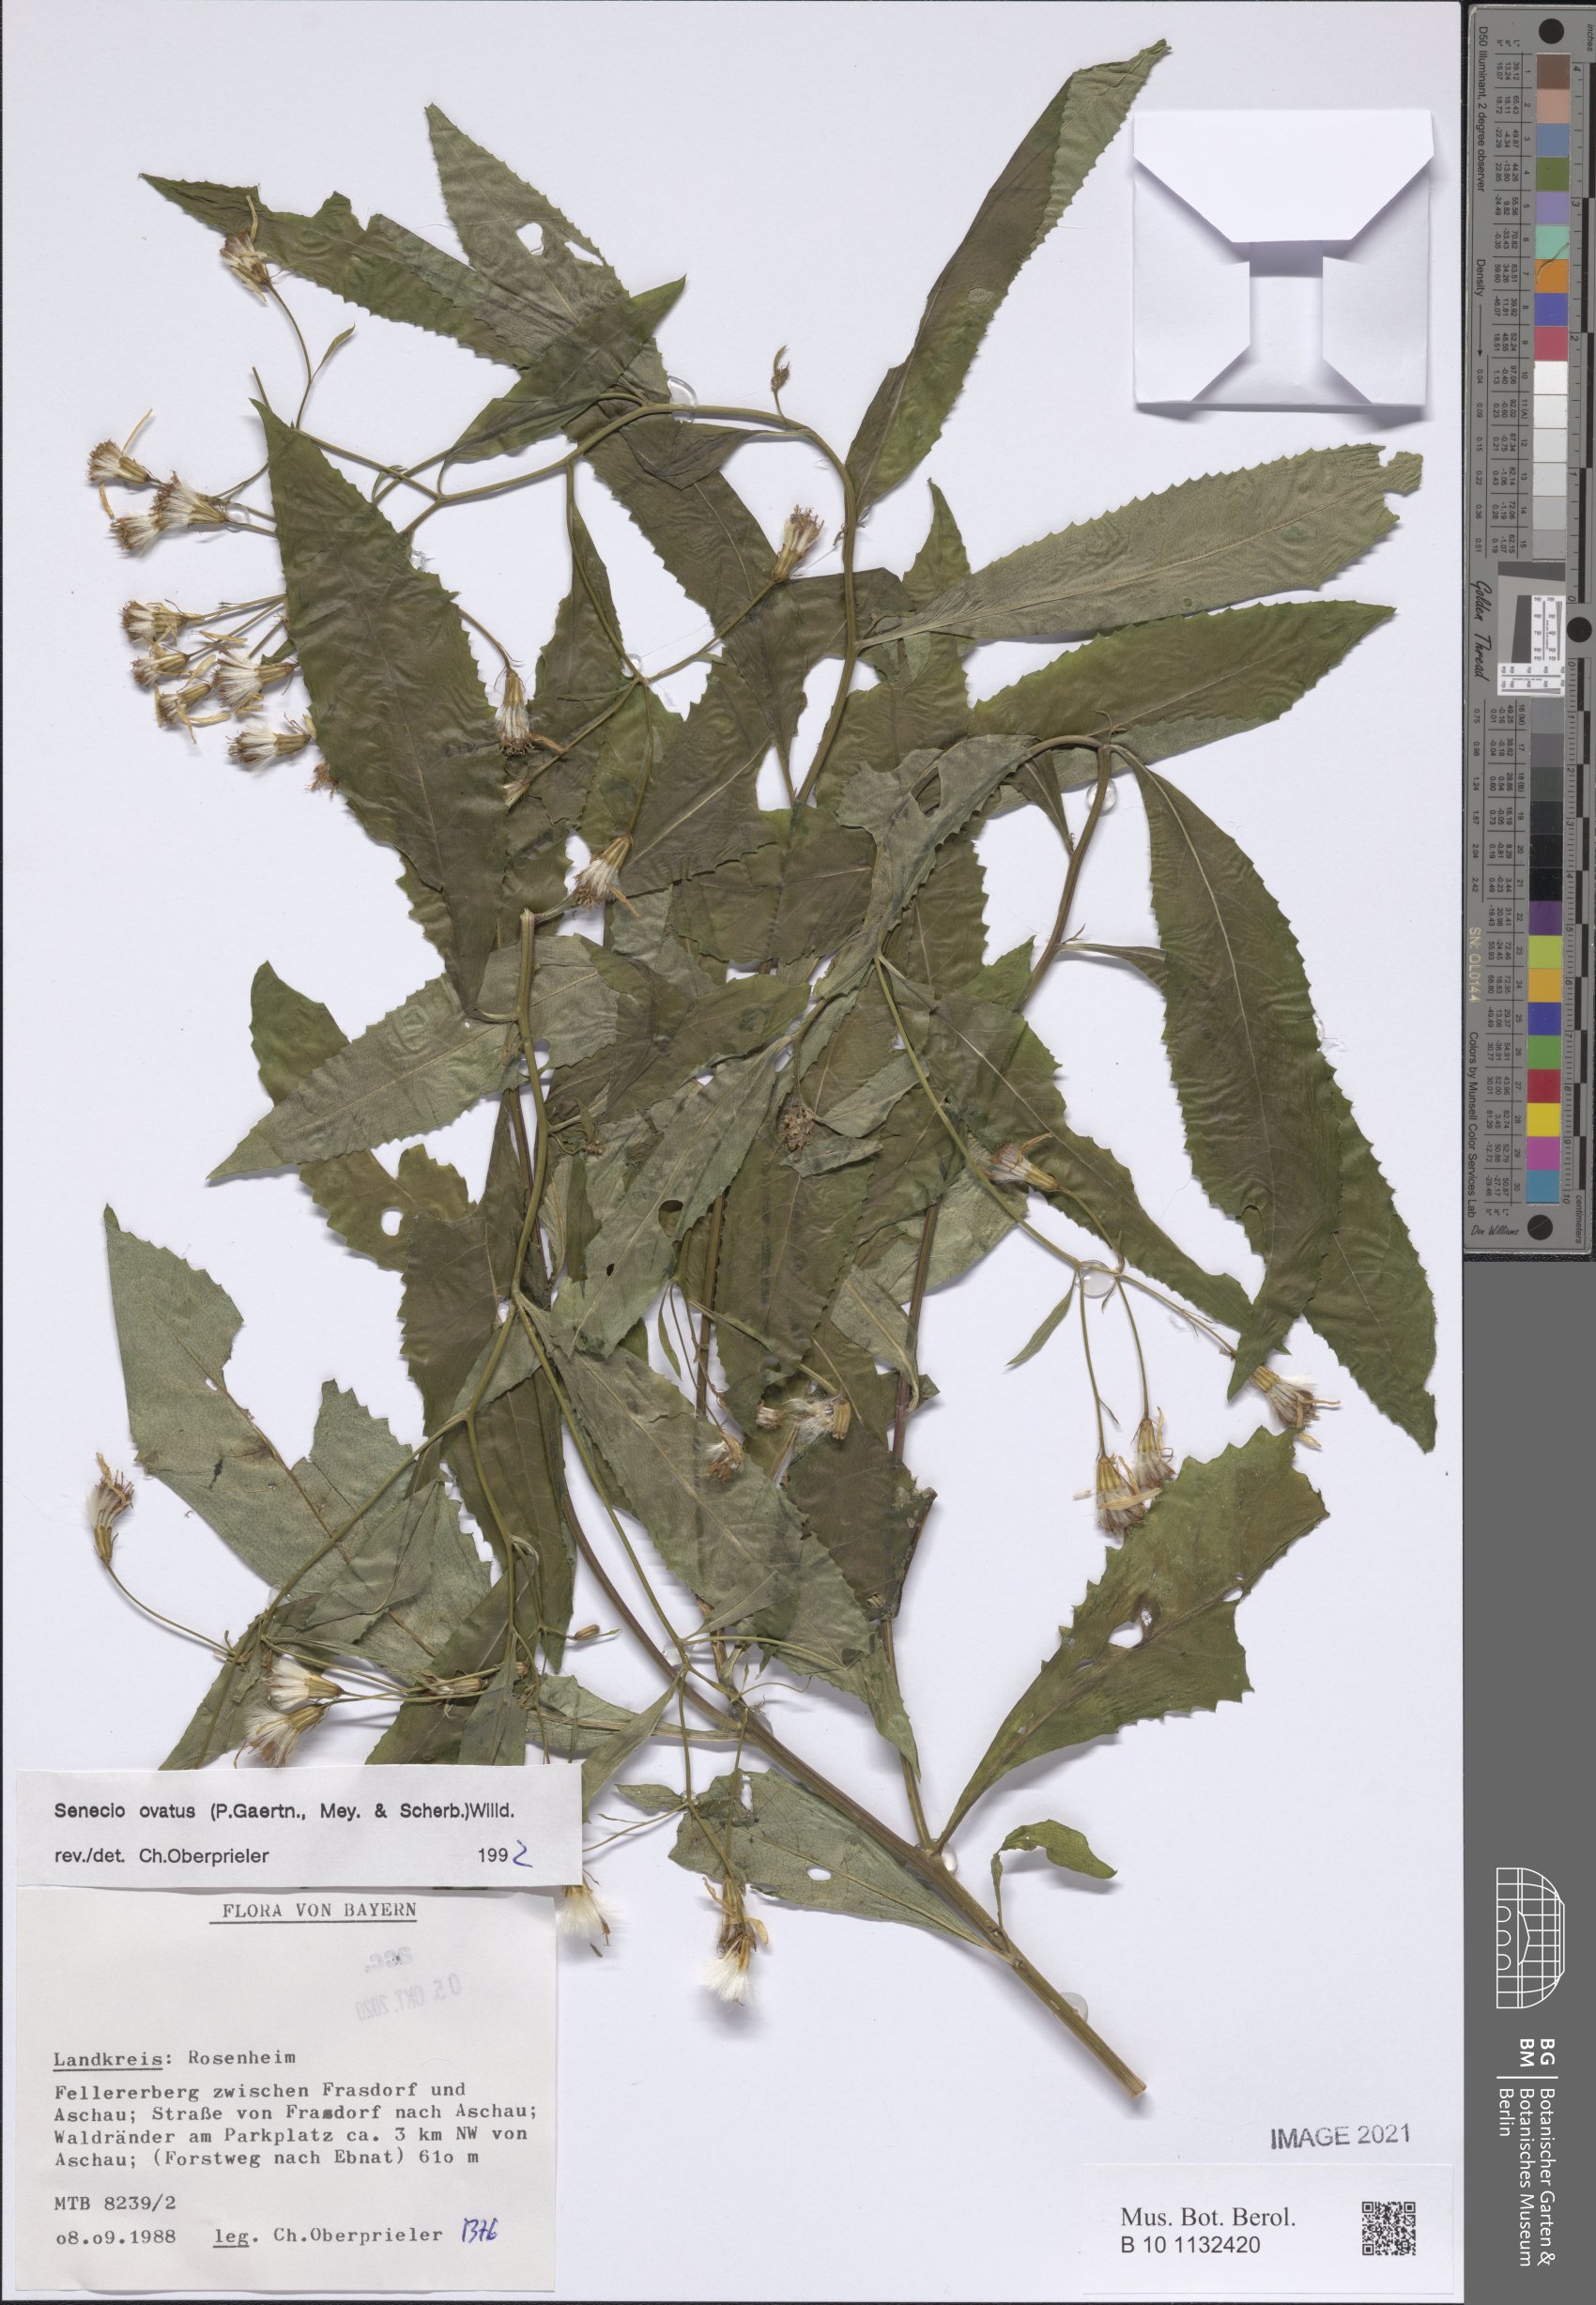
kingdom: Plantae
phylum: Tracheophyta
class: Magnoliopsida
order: Asterales
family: Asteraceae
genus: Senecio
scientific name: Senecio ovatus
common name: Wood ragwort
